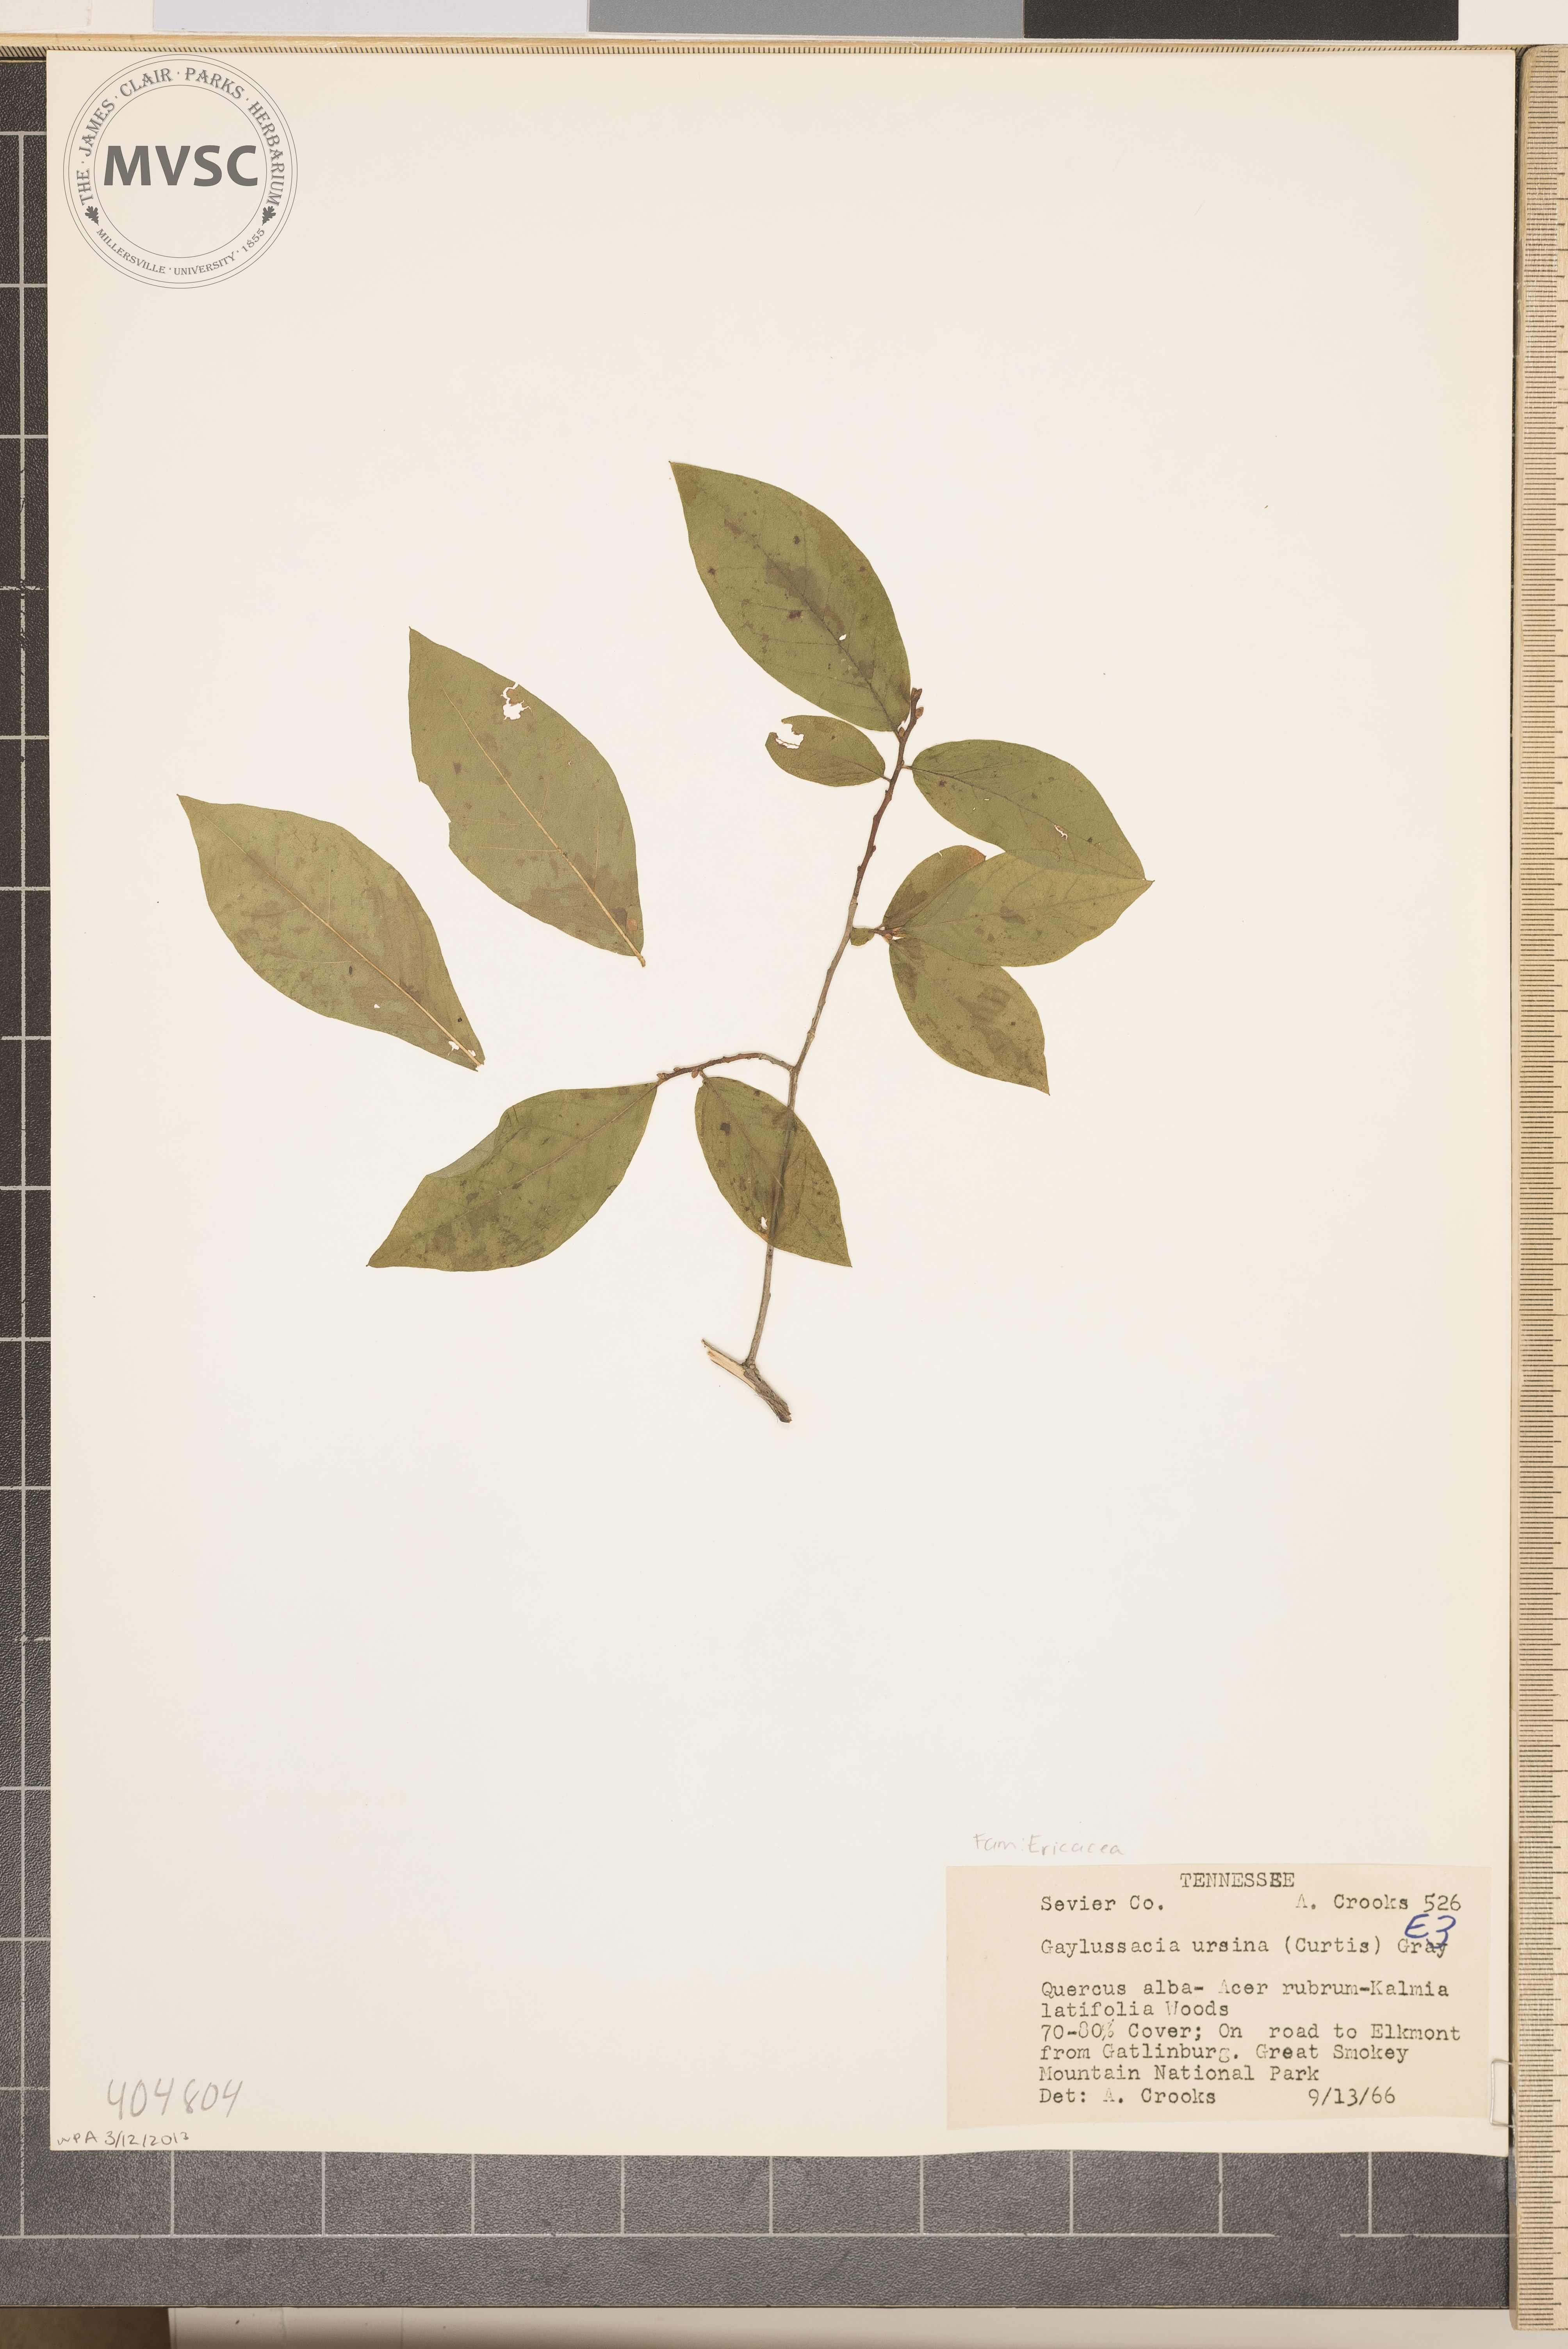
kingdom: Plantae
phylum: Tracheophyta
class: Magnoliopsida
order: Ericales
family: Ericaceae
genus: Gaylussacia
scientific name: Gaylussacia ursina
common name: Bear huckleberry
